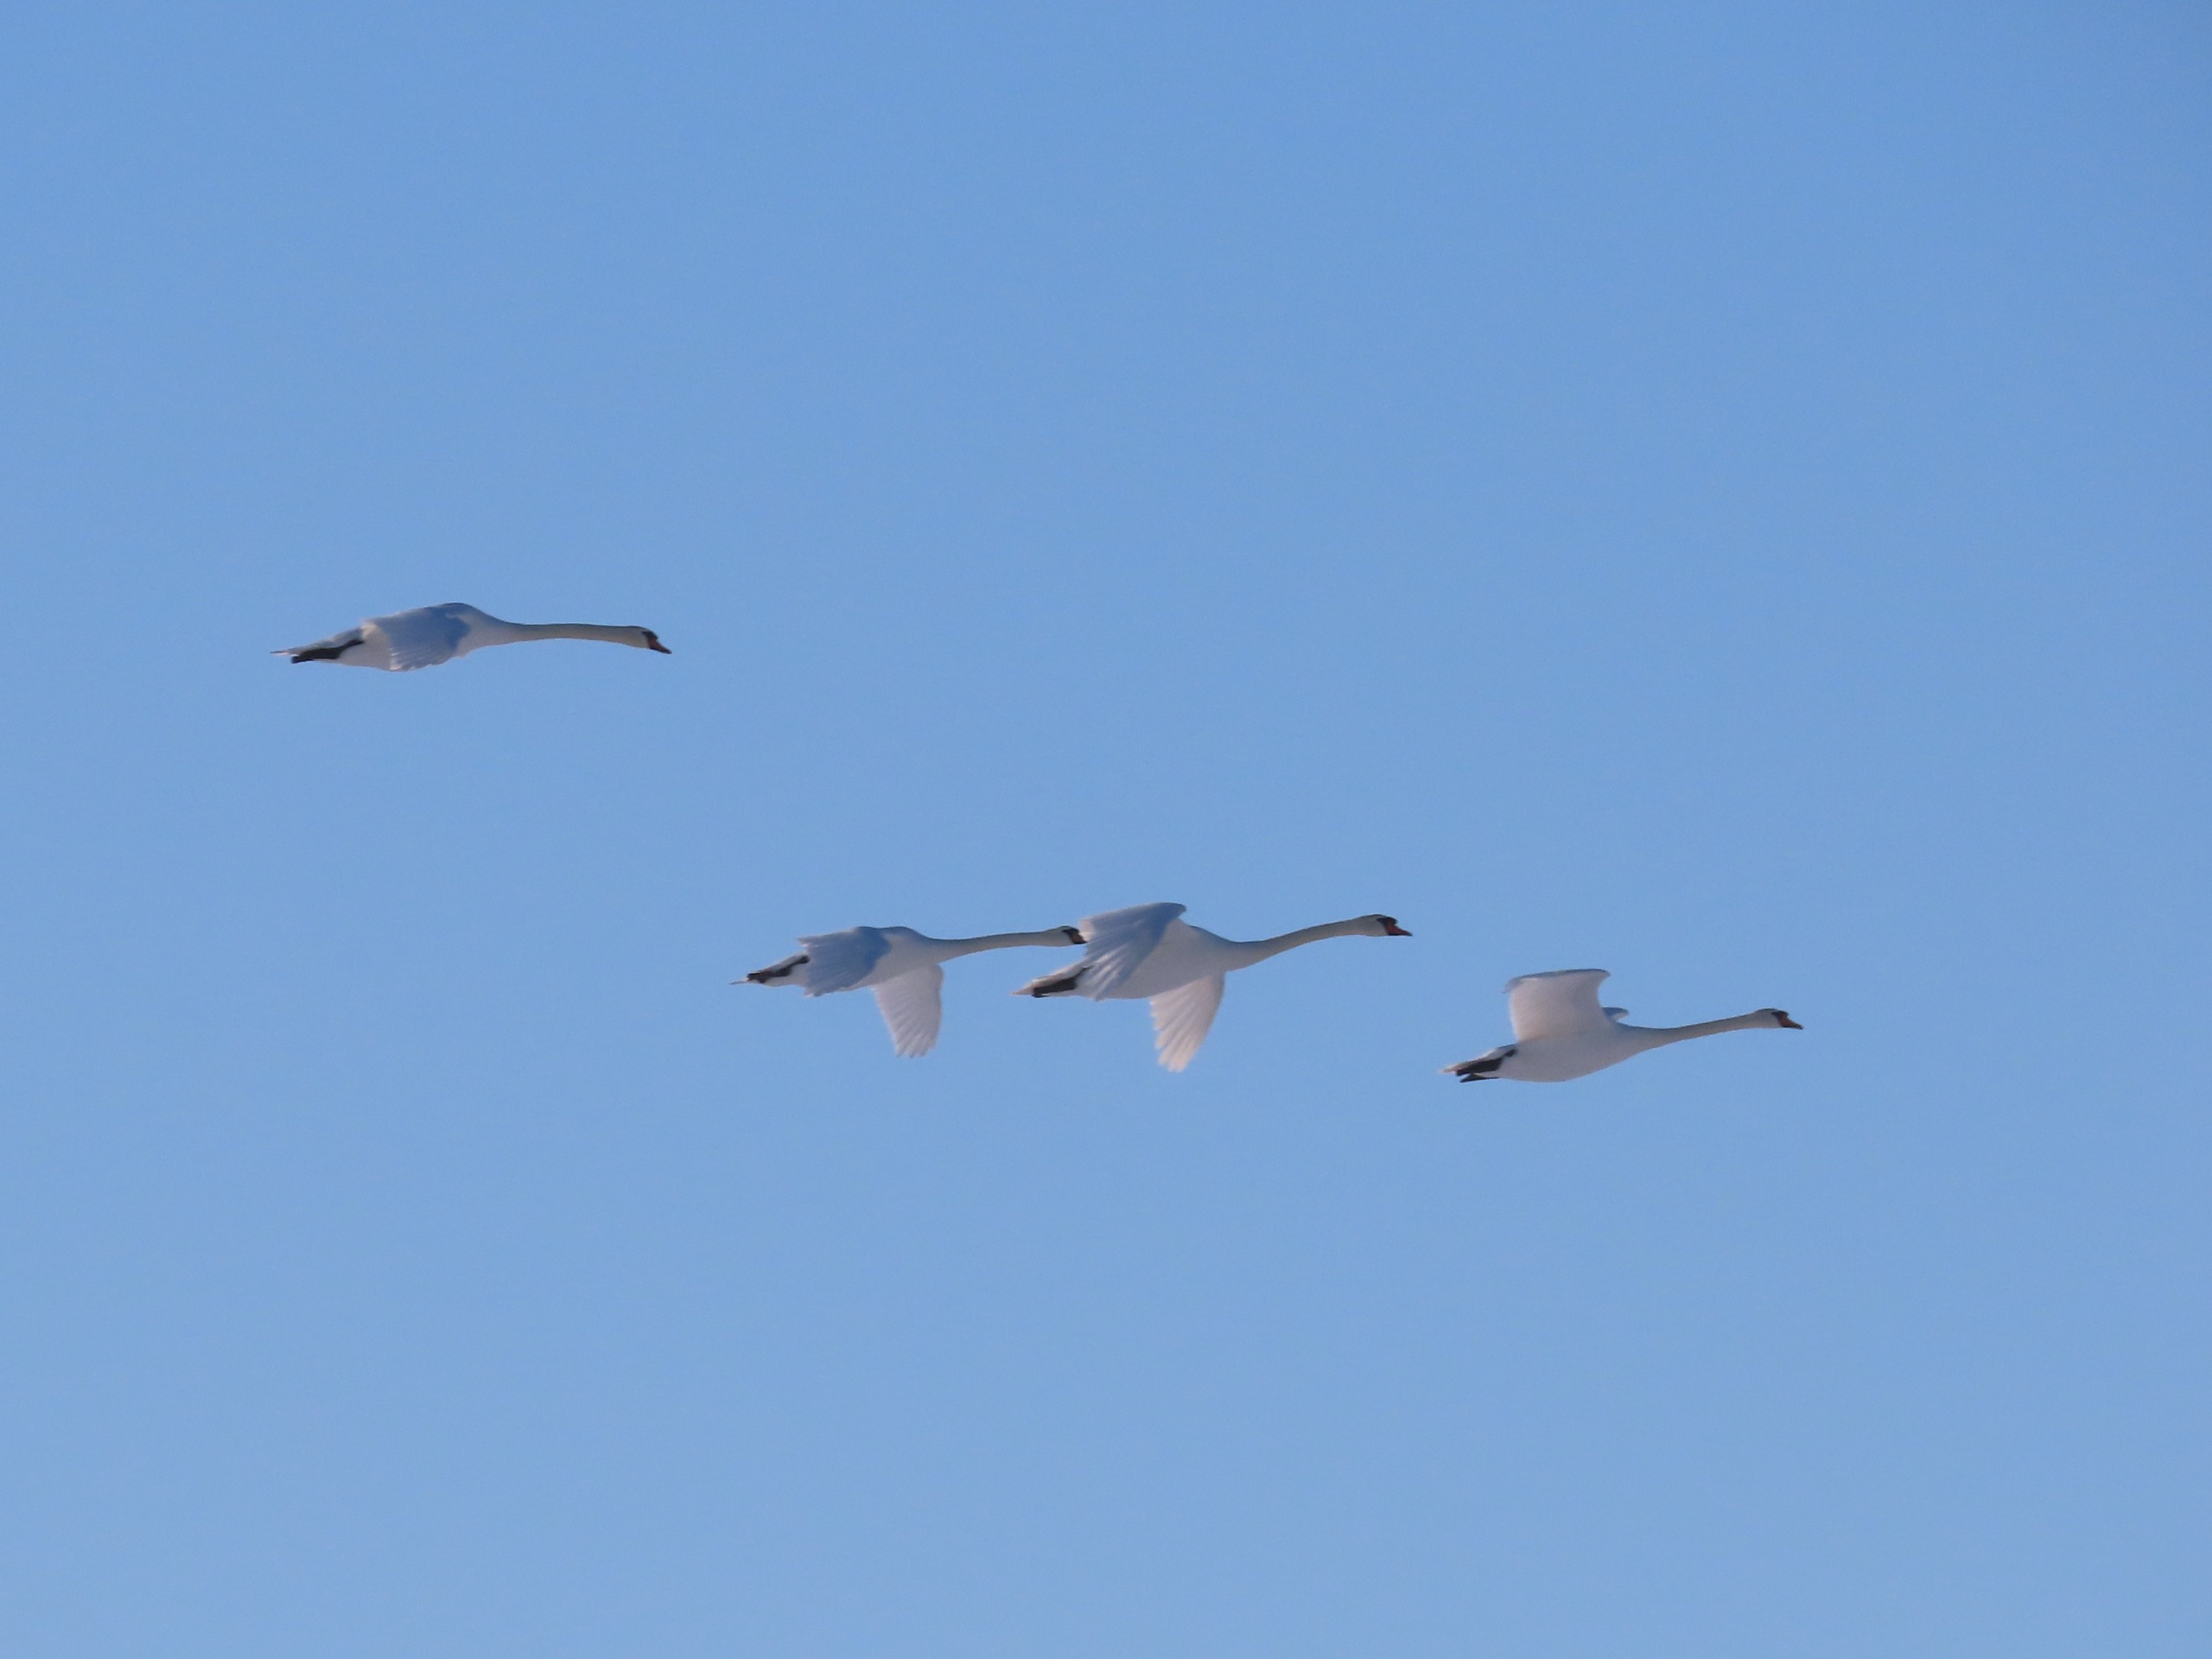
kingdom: Animalia
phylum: Chordata
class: Aves
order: Anseriformes
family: Anatidae
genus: Cygnus
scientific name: Cygnus olor
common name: Knopsvane
